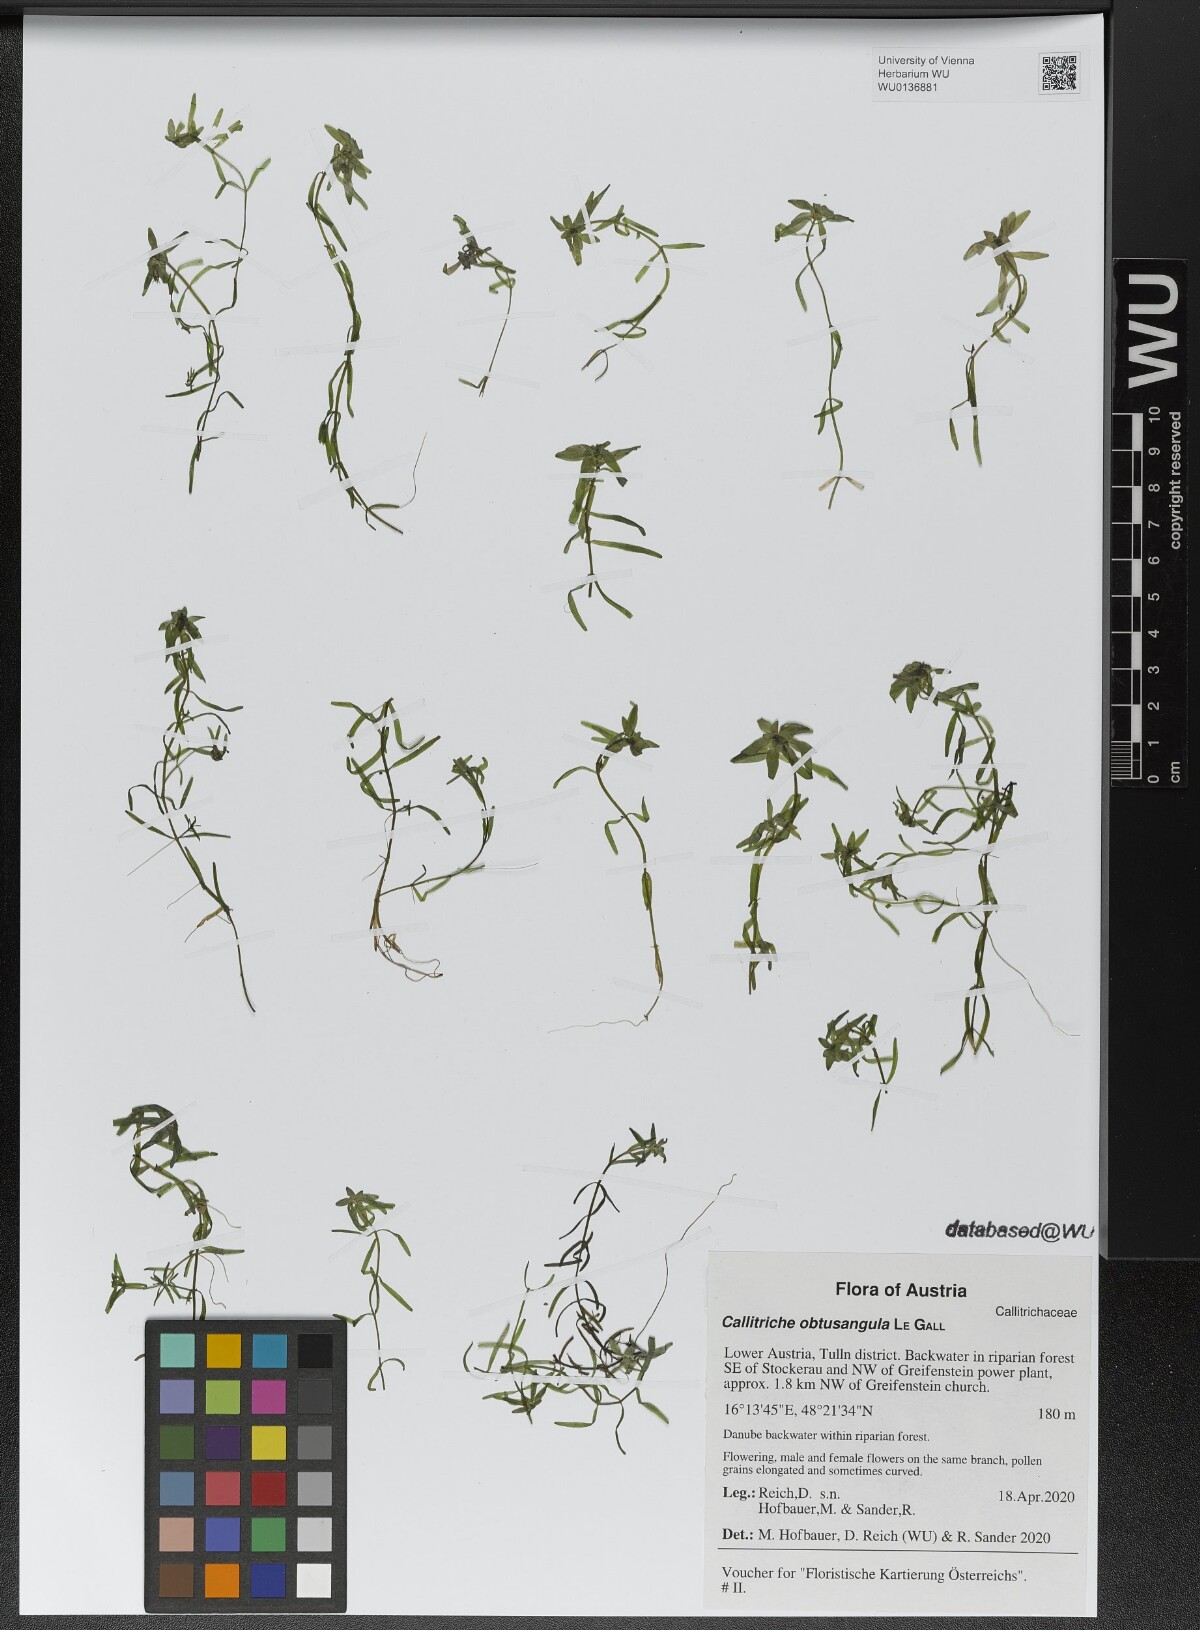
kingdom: Plantae
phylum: Tracheophyta
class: Magnoliopsida
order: Lamiales
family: Plantaginaceae
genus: Callitriche
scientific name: Callitriche obtusangula
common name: Blunt-fruited water-starwort
